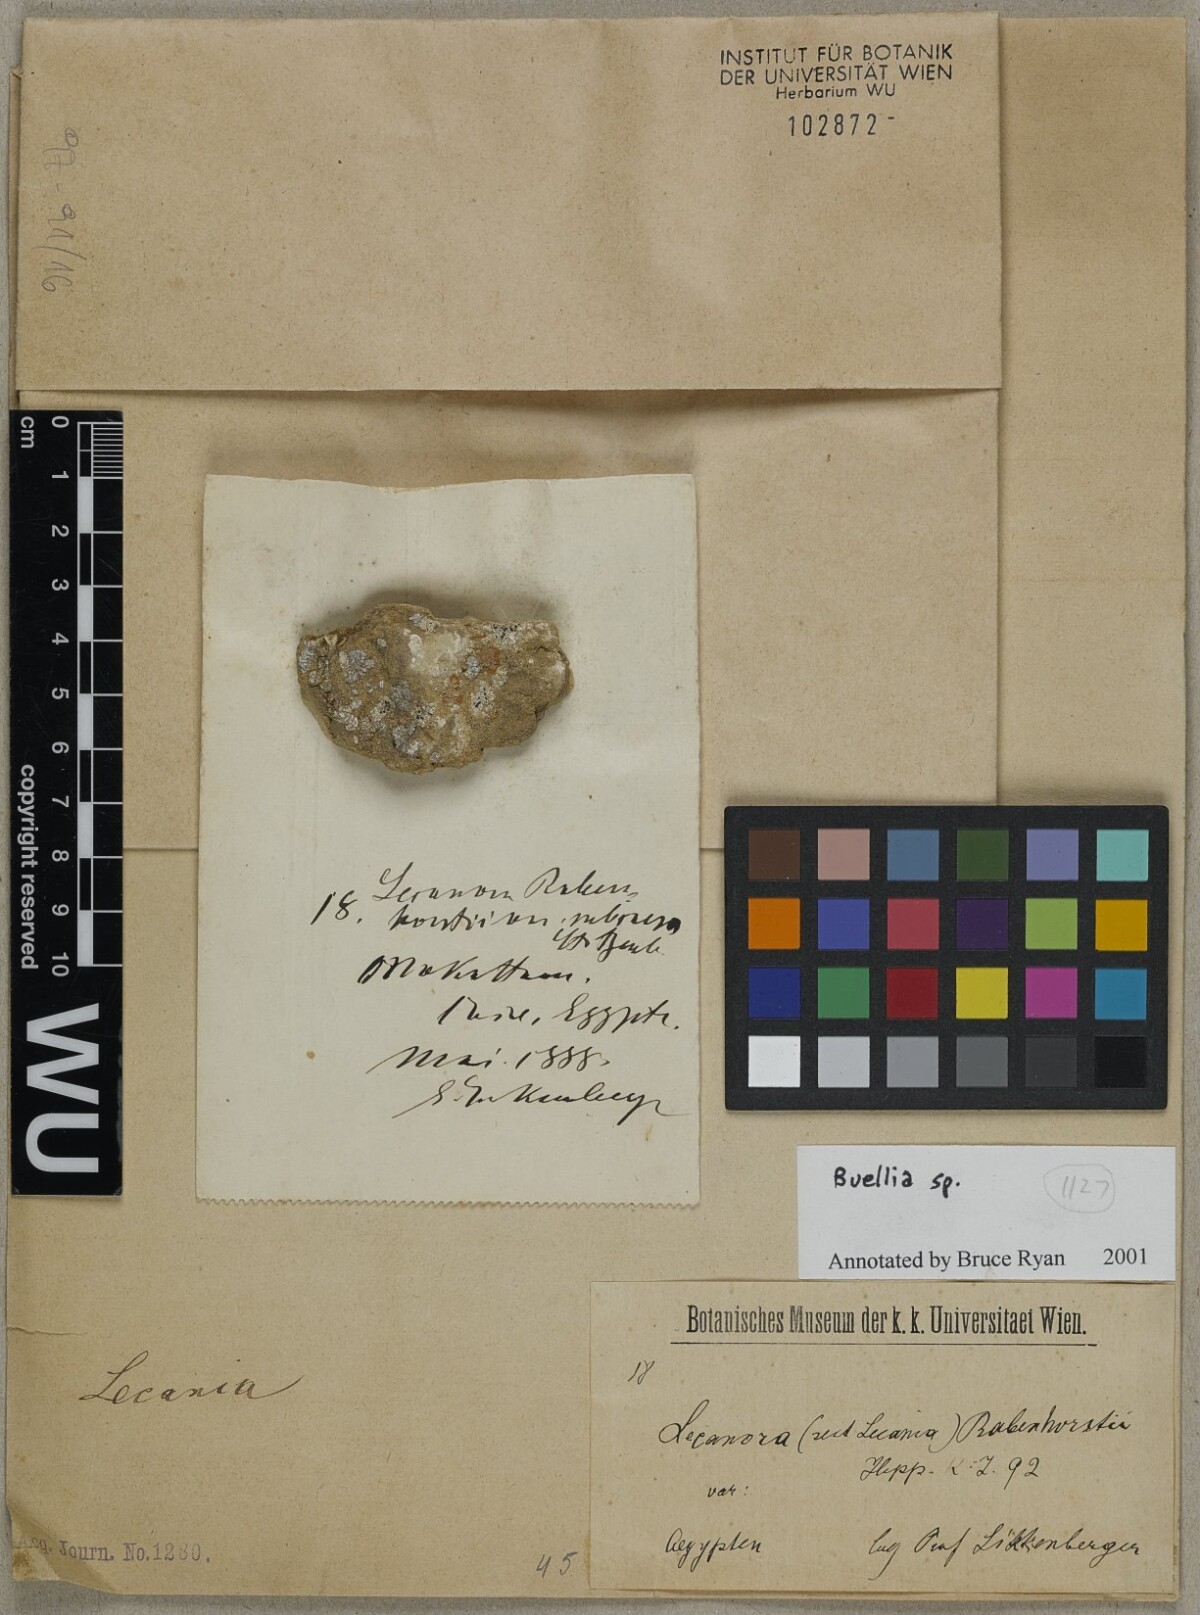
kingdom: Fungi
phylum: Ascomycota
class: Lecanoromycetes
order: Caliciales
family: Caliciaceae
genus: Buellia
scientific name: Buellia
